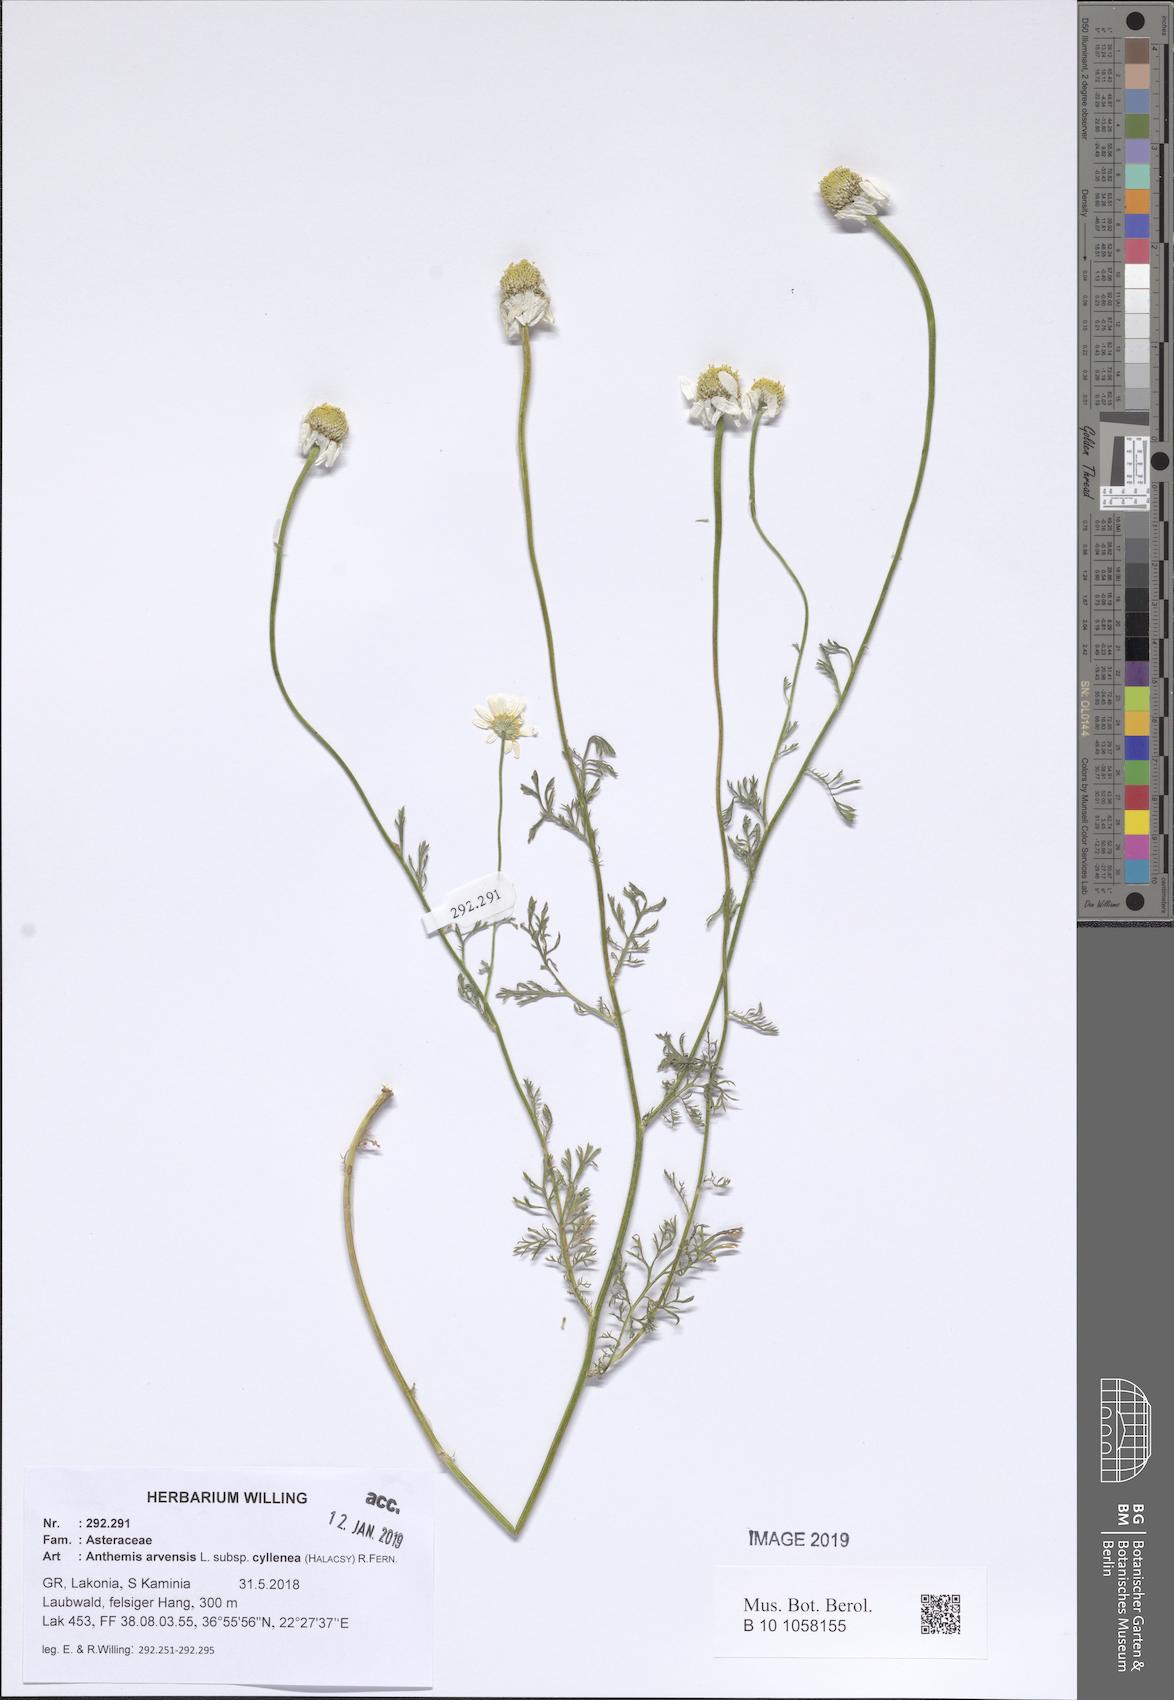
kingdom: Plantae
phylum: Tracheophyta
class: Magnoliopsida
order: Asterales
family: Asteraceae
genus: Anthemis
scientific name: Anthemis arvensis
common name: Corn chamomile
